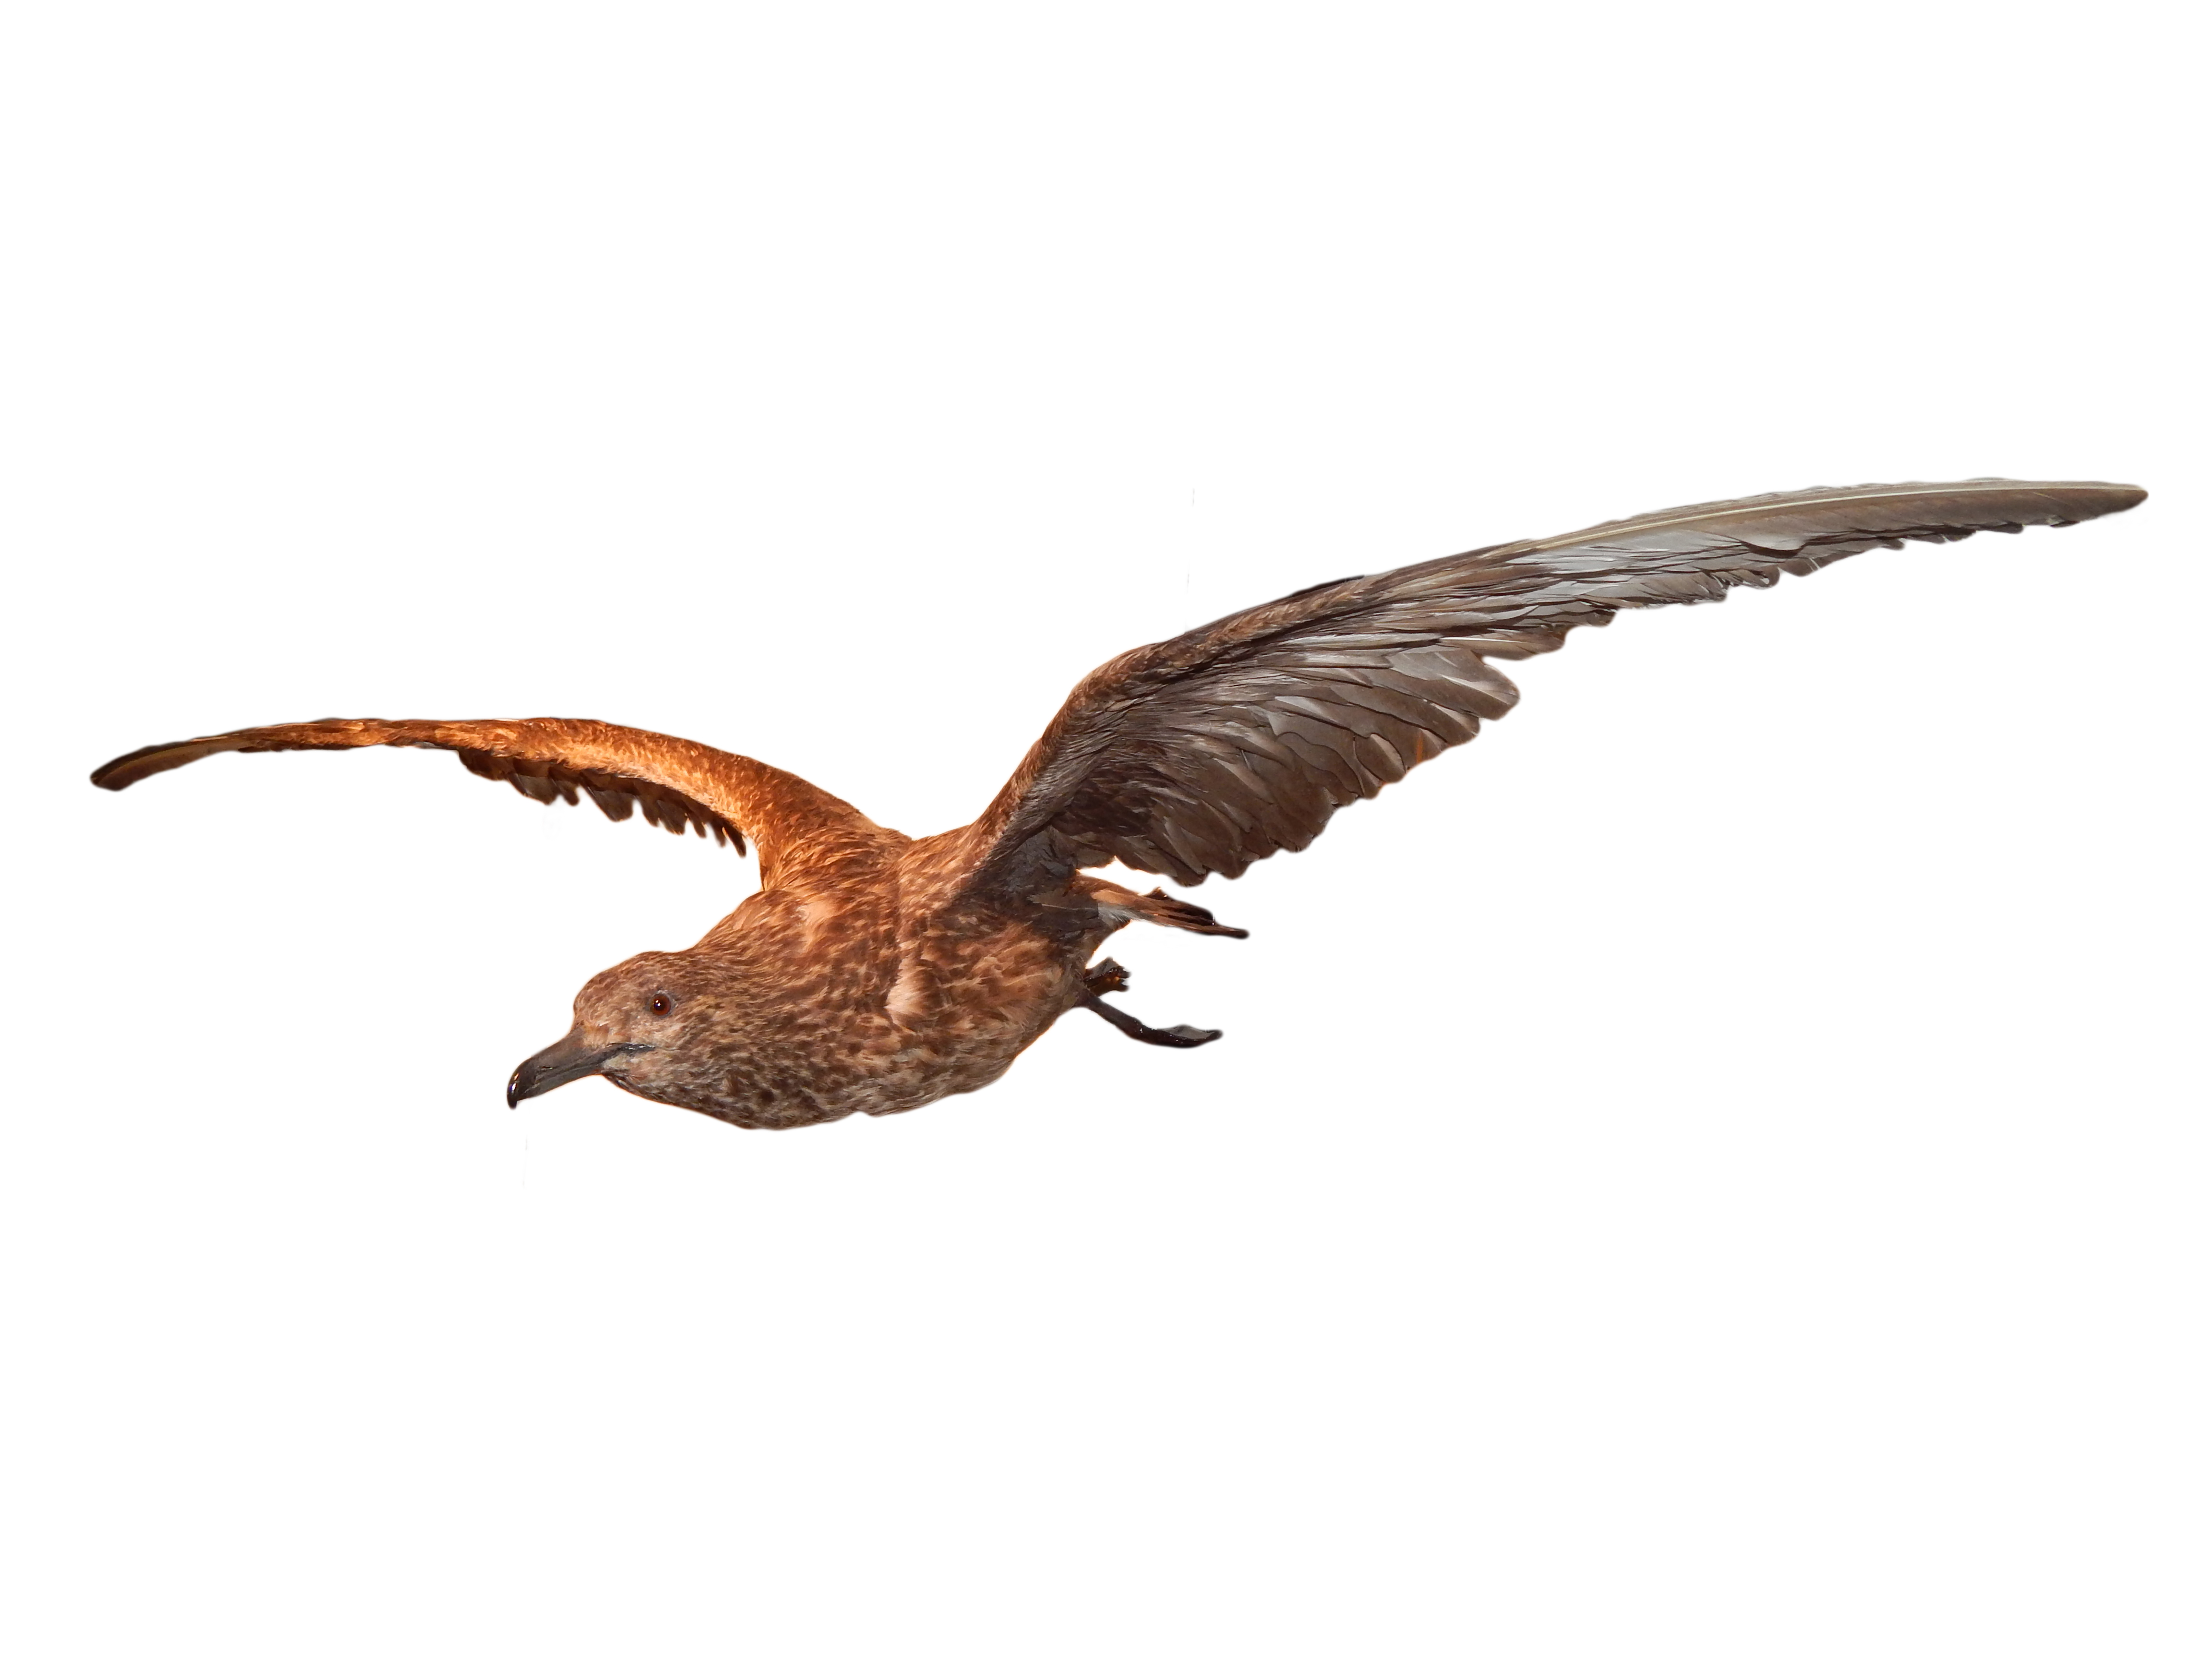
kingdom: Animalia
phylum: Chordata
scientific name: Chordata
